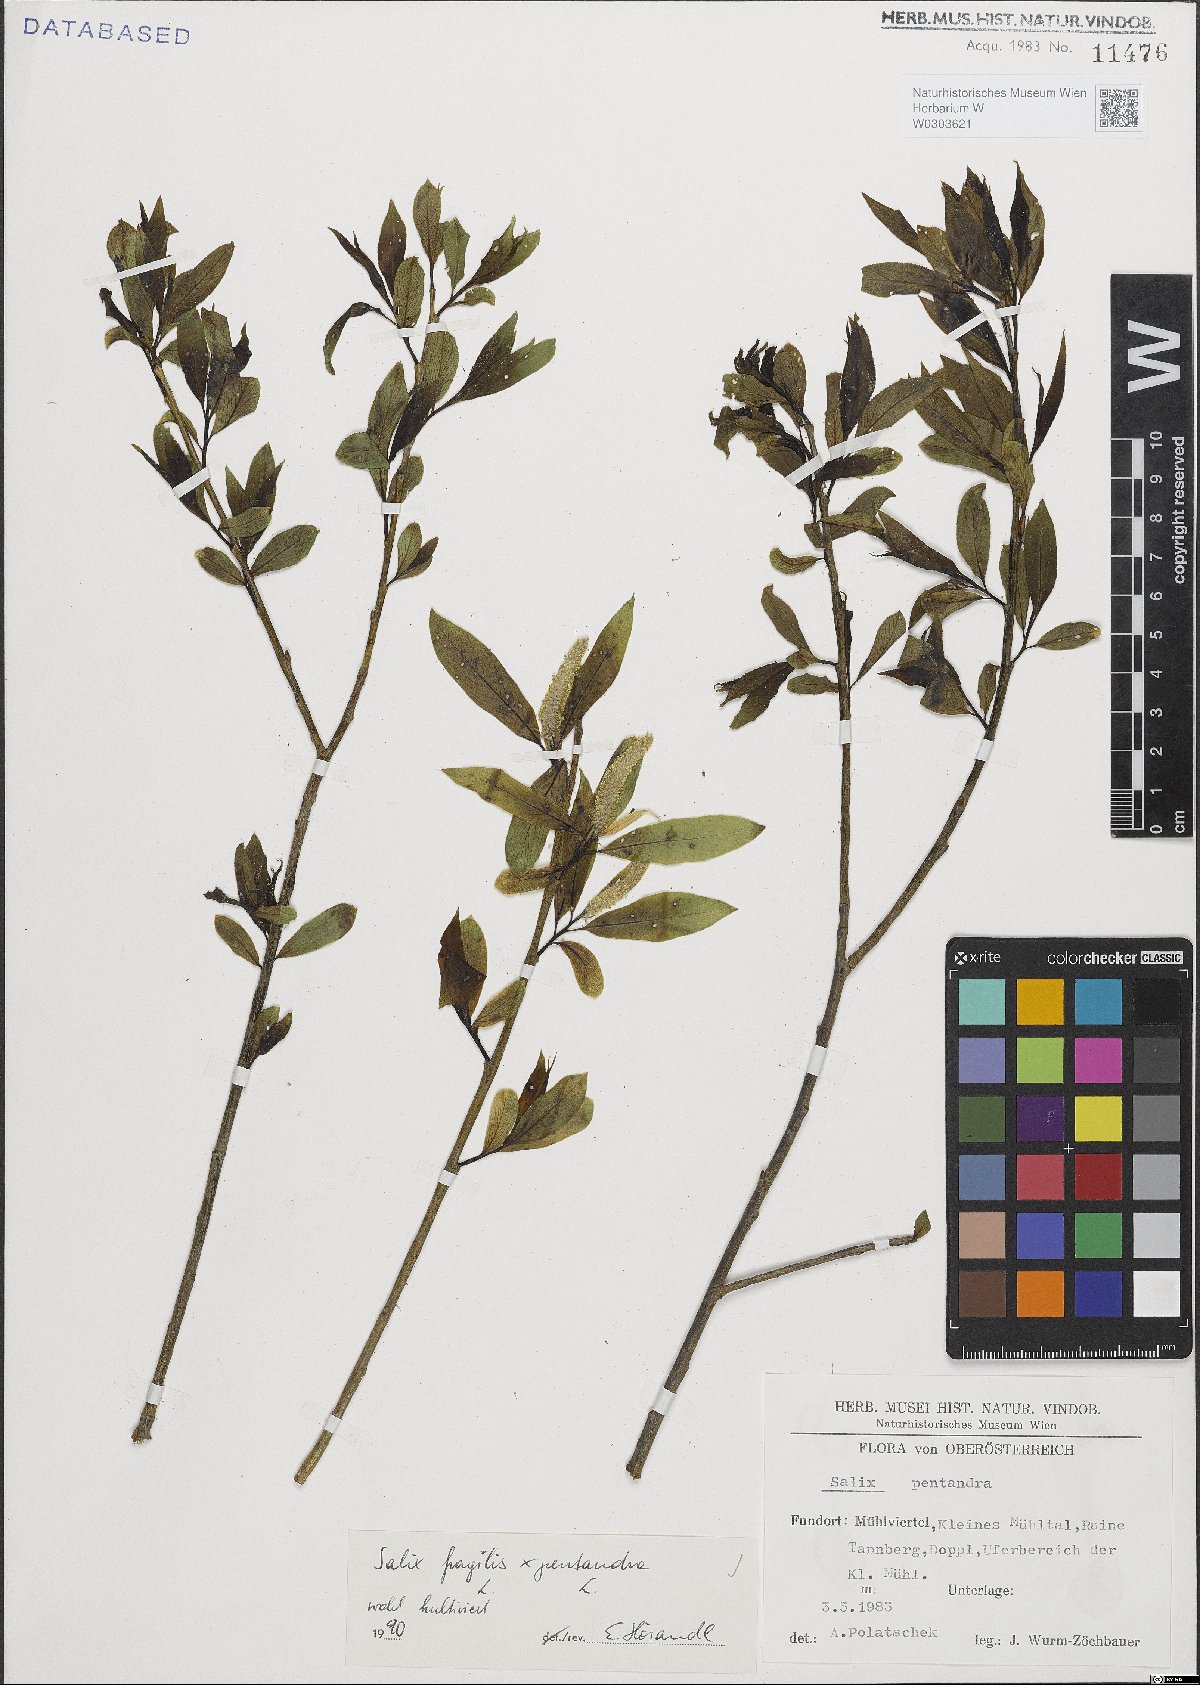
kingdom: Plantae
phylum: Tracheophyta
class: Magnoliopsida
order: Malpighiales
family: Salicaceae
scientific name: Salicaceae
